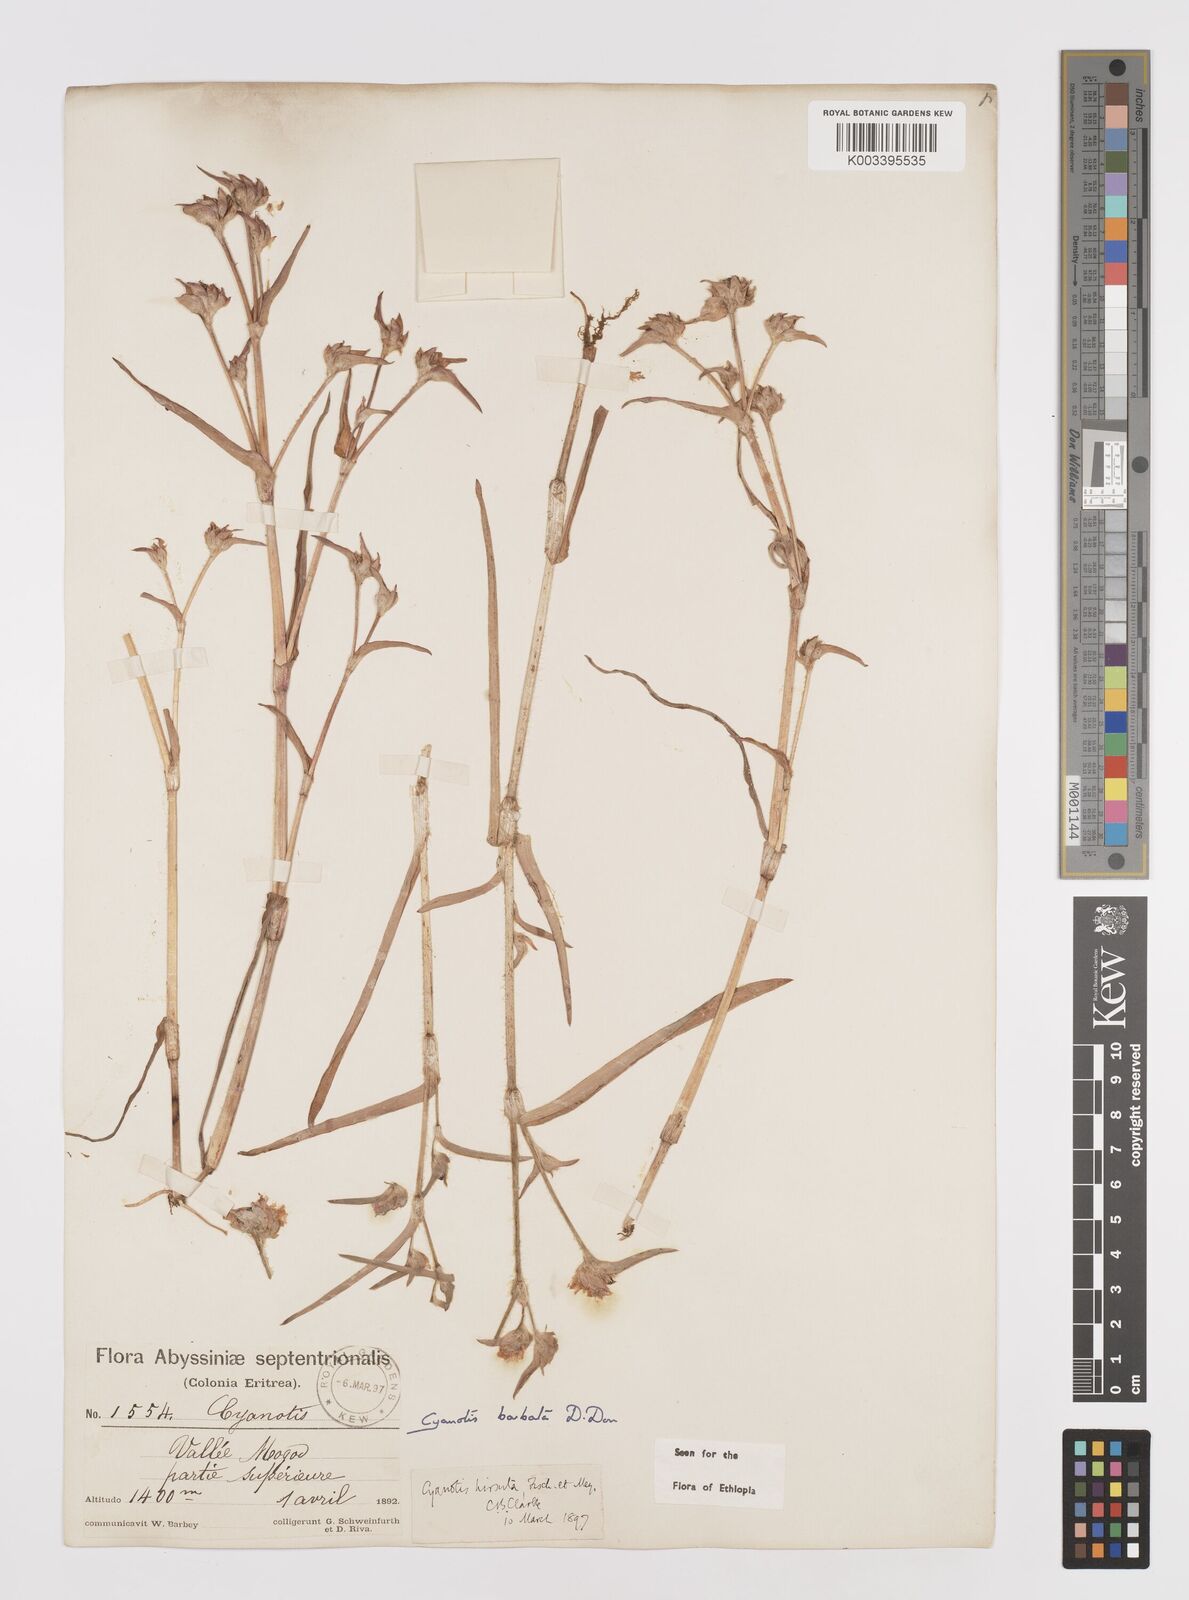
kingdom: Plantae
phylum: Tracheophyta
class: Liliopsida
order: Commelinales
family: Commelinaceae
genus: Cyanotis
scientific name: Cyanotis vaga
